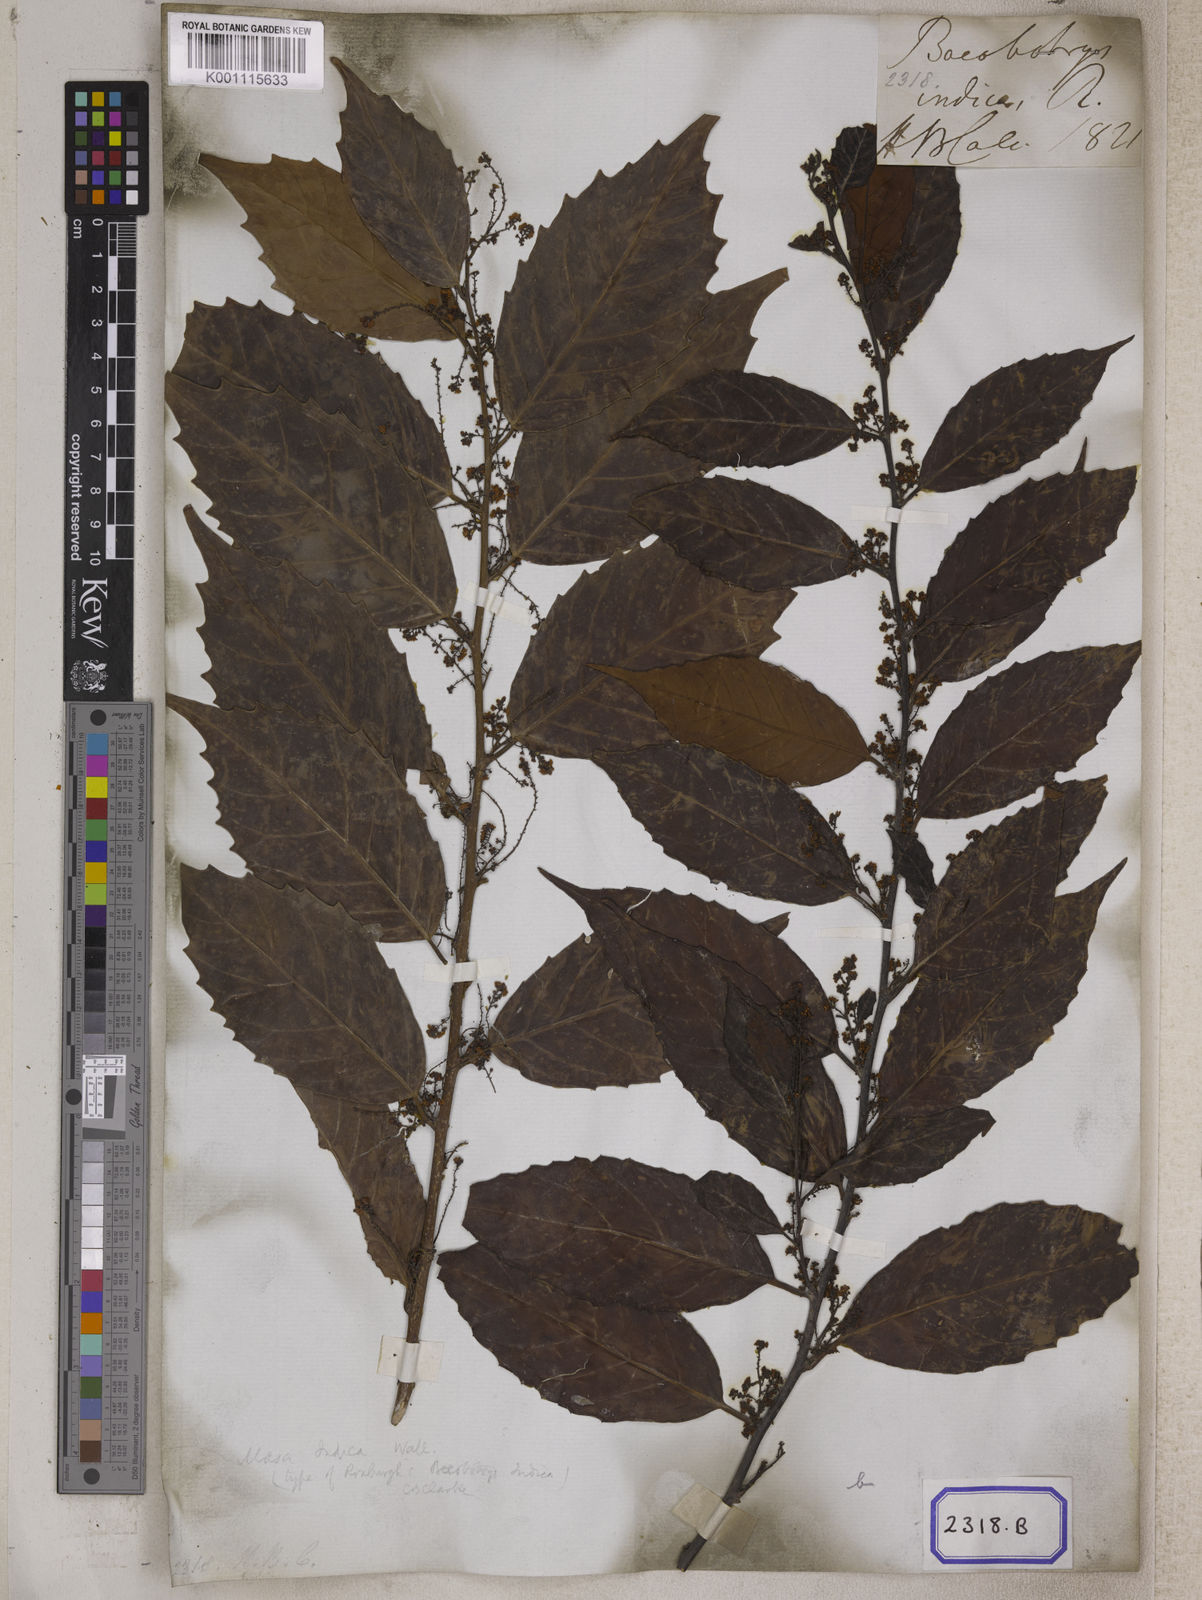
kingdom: Plantae
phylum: Tracheophyta
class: Magnoliopsida
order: Ericales
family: Primulaceae
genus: Maesa
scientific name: Maesa indica
